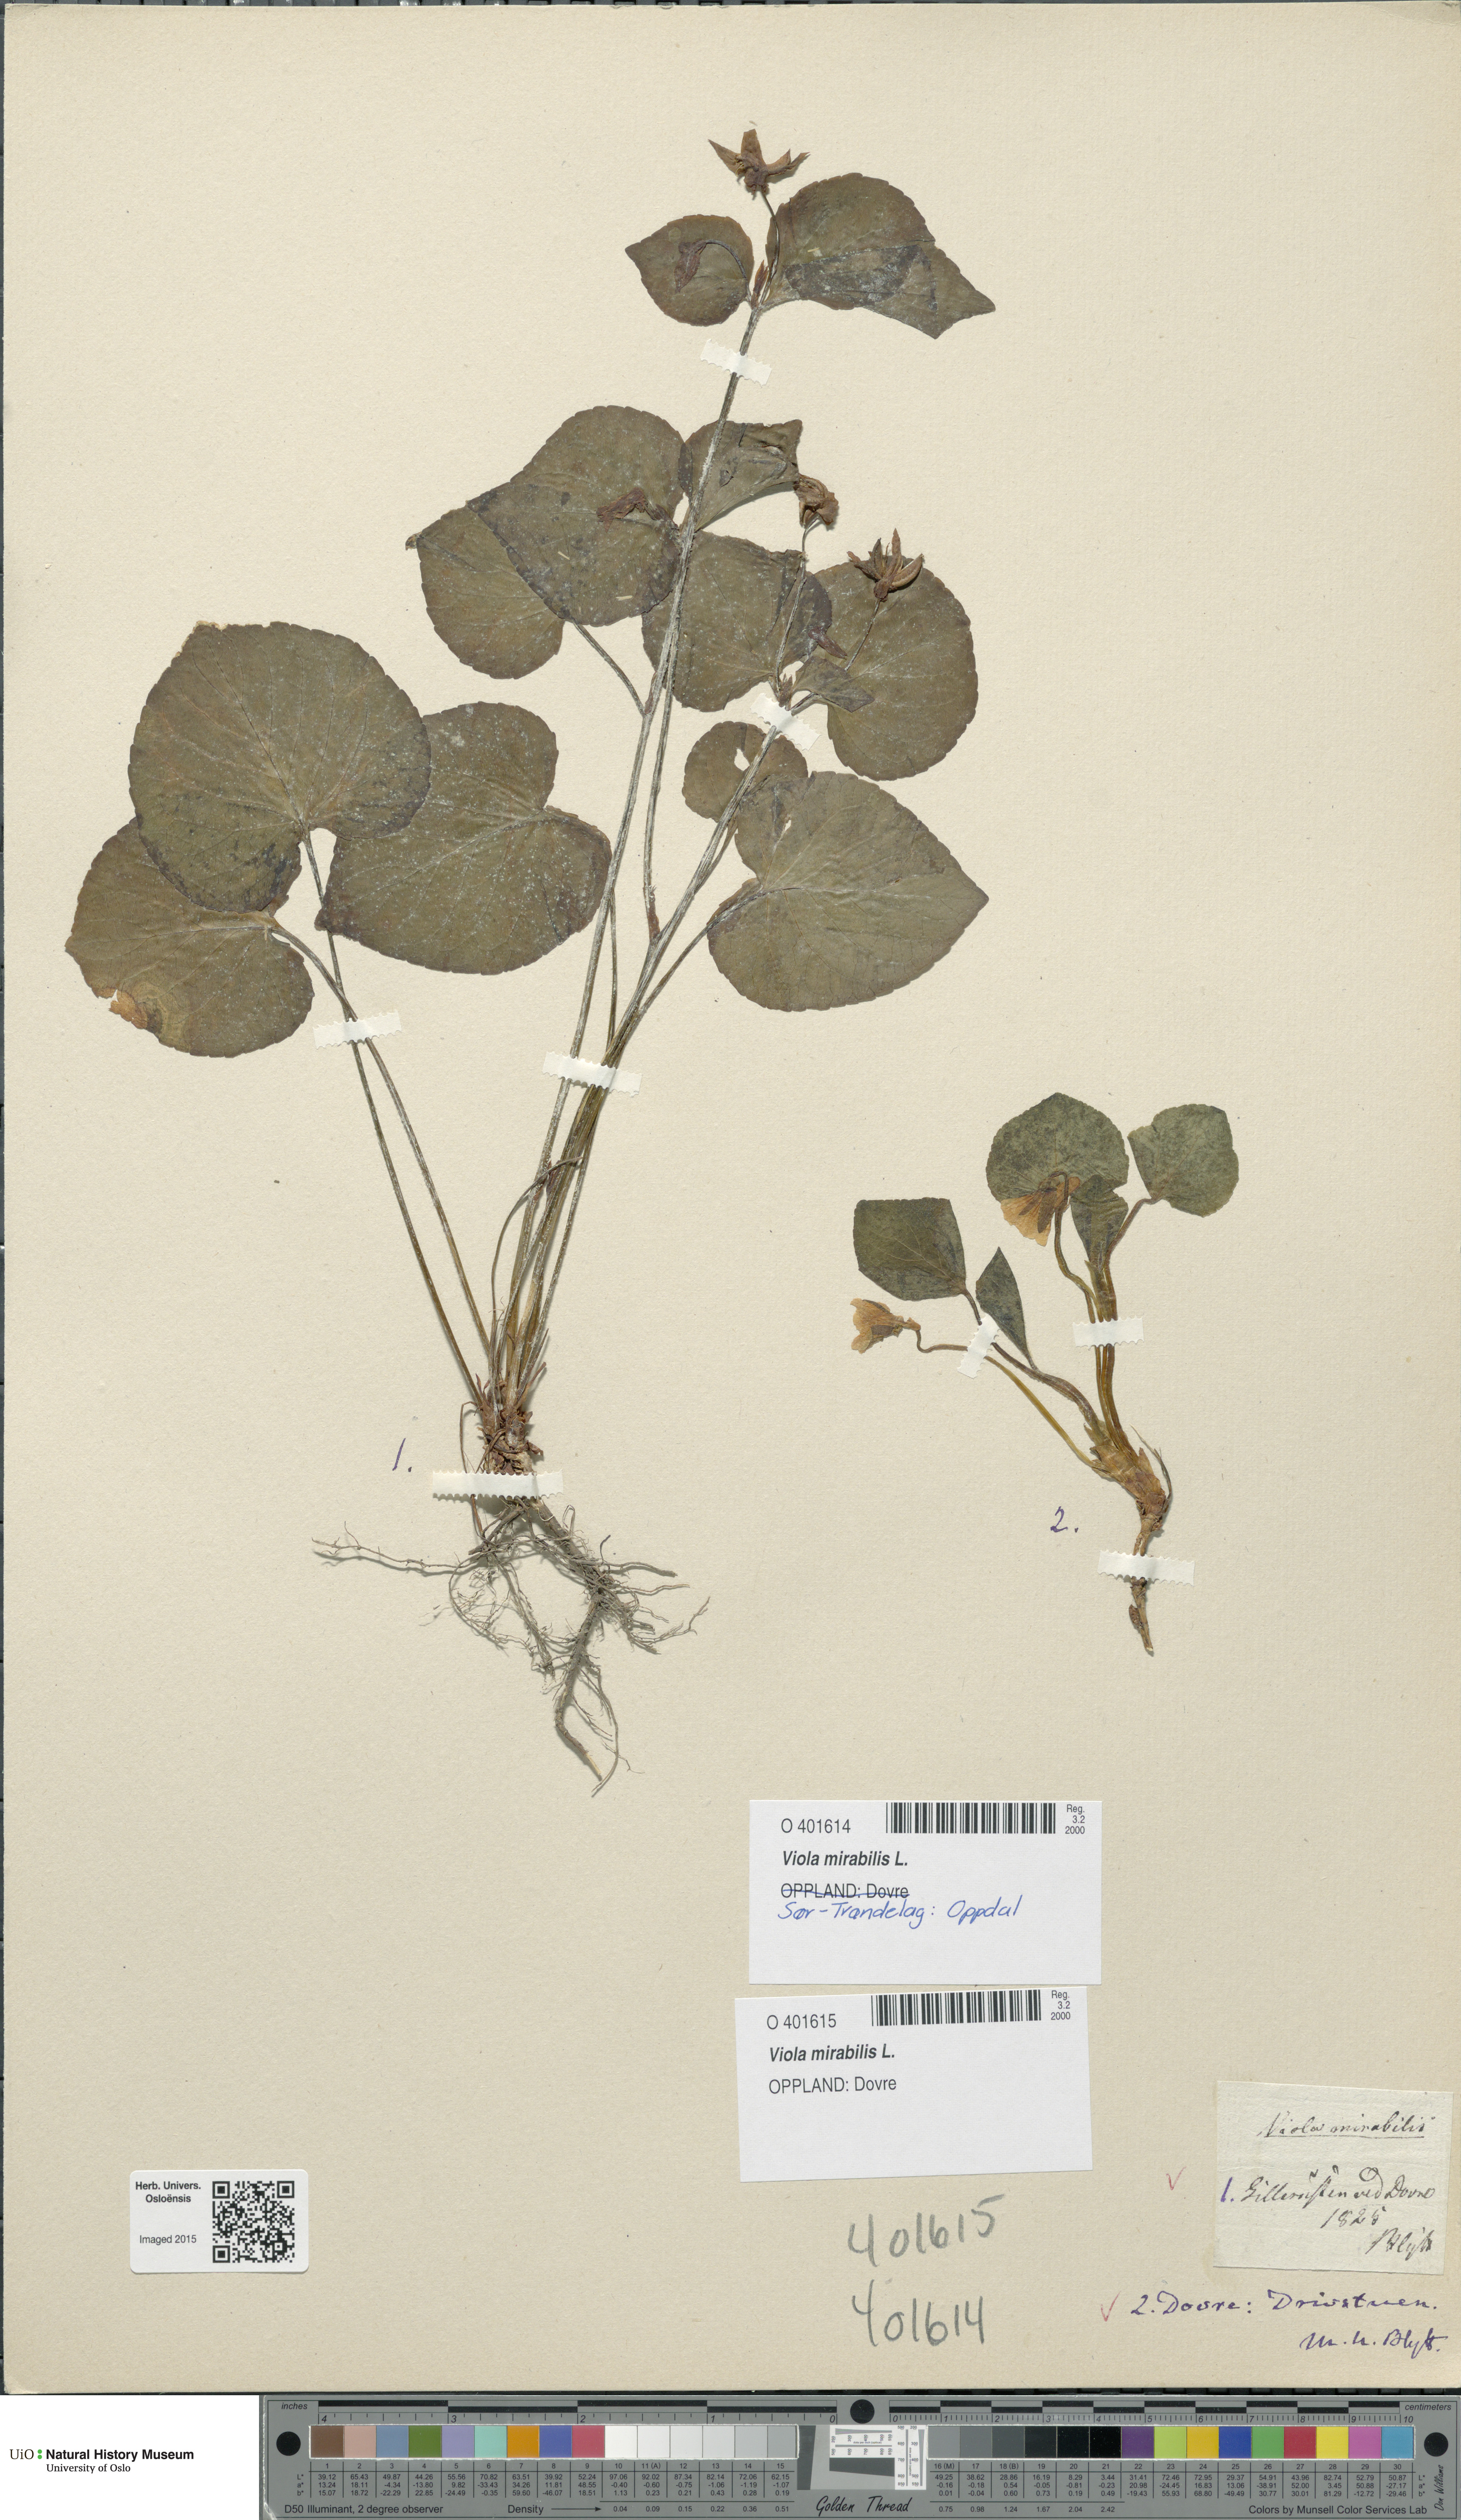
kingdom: Plantae
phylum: Tracheophyta
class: Magnoliopsida
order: Malpighiales
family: Violaceae
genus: Viola
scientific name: Viola mirabilis
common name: Wonder violet
